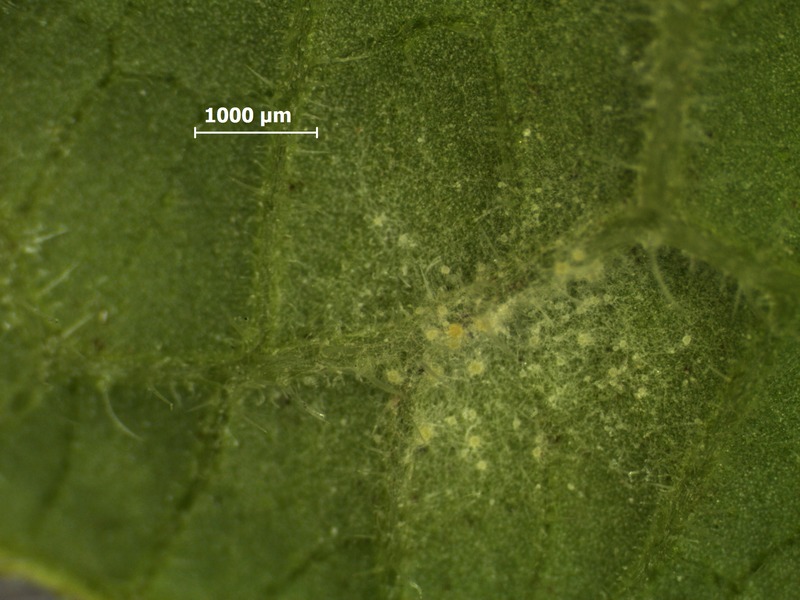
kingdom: Fungi
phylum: Ascomycota
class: Leotiomycetes
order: Helotiales
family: Erysiphaceae
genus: Golovinomyces
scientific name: Golovinomyces cynoglossi
